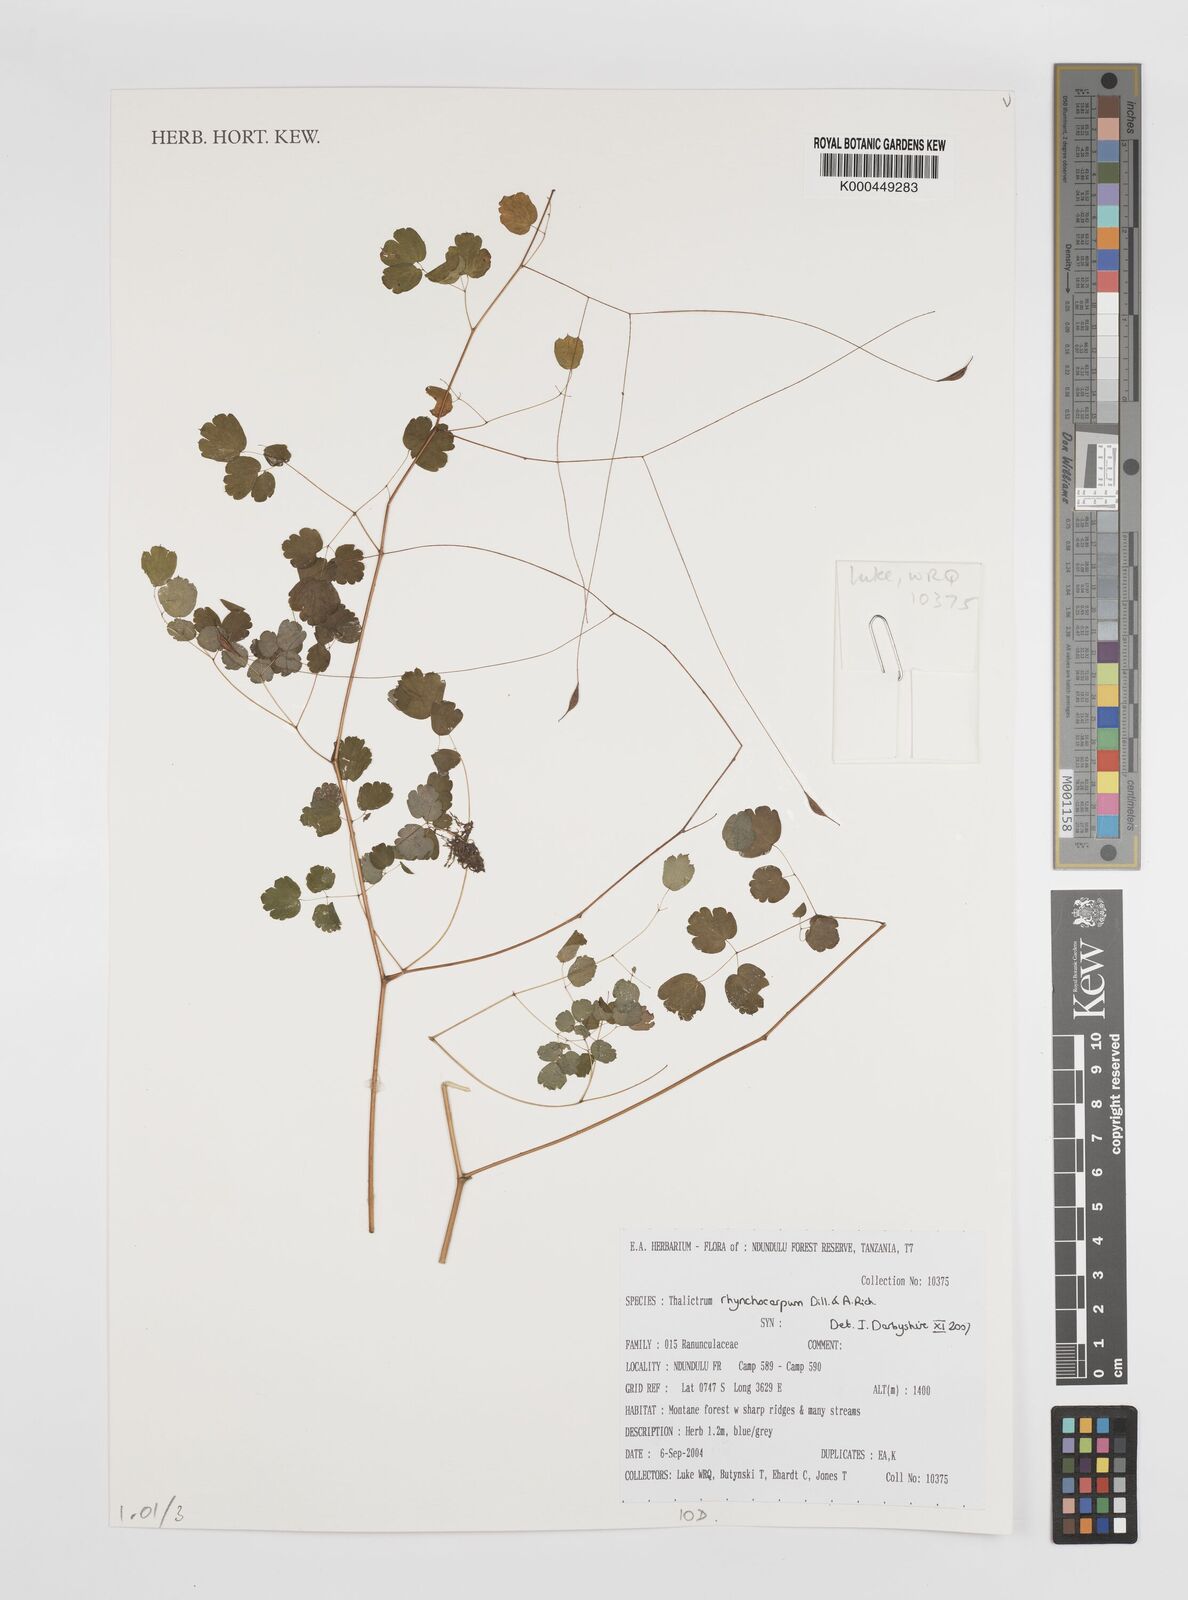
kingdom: Plantae
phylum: Tracheophyta
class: Magnoliopsida
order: Ranunculales
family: Ranunculaceae
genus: Thalictrum
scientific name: Thalictrum rhynchocarpum
